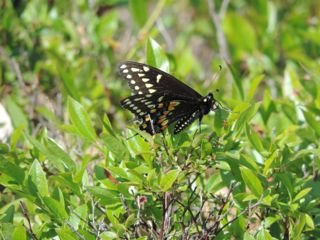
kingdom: Animalia
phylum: Arthropoda
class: Insecta
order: Lepidoptera
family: Papilionidae
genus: Papilio
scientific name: Papilio polyxenes
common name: Black Swallowtail
